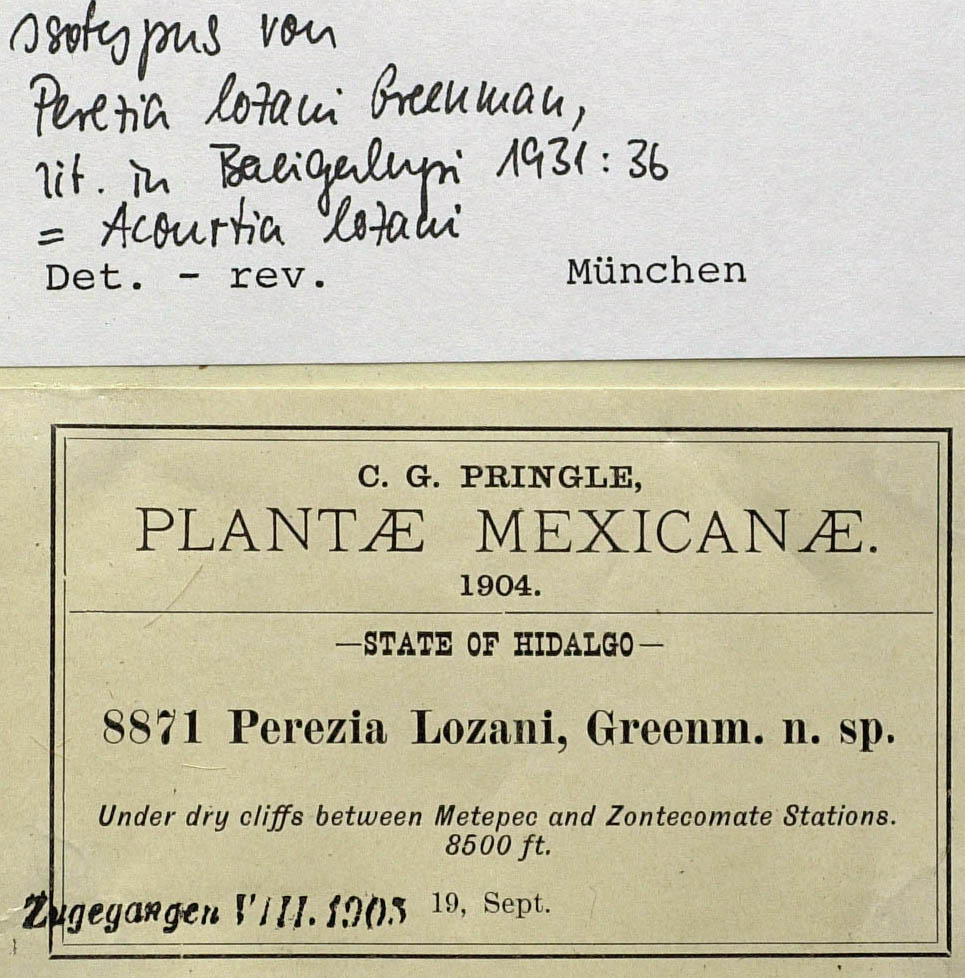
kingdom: Plantae
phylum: Tracheophyta
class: Magnoliopsida
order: Asterales
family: Asteraceae
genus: Acourtia
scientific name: Acourtia lozanoi
